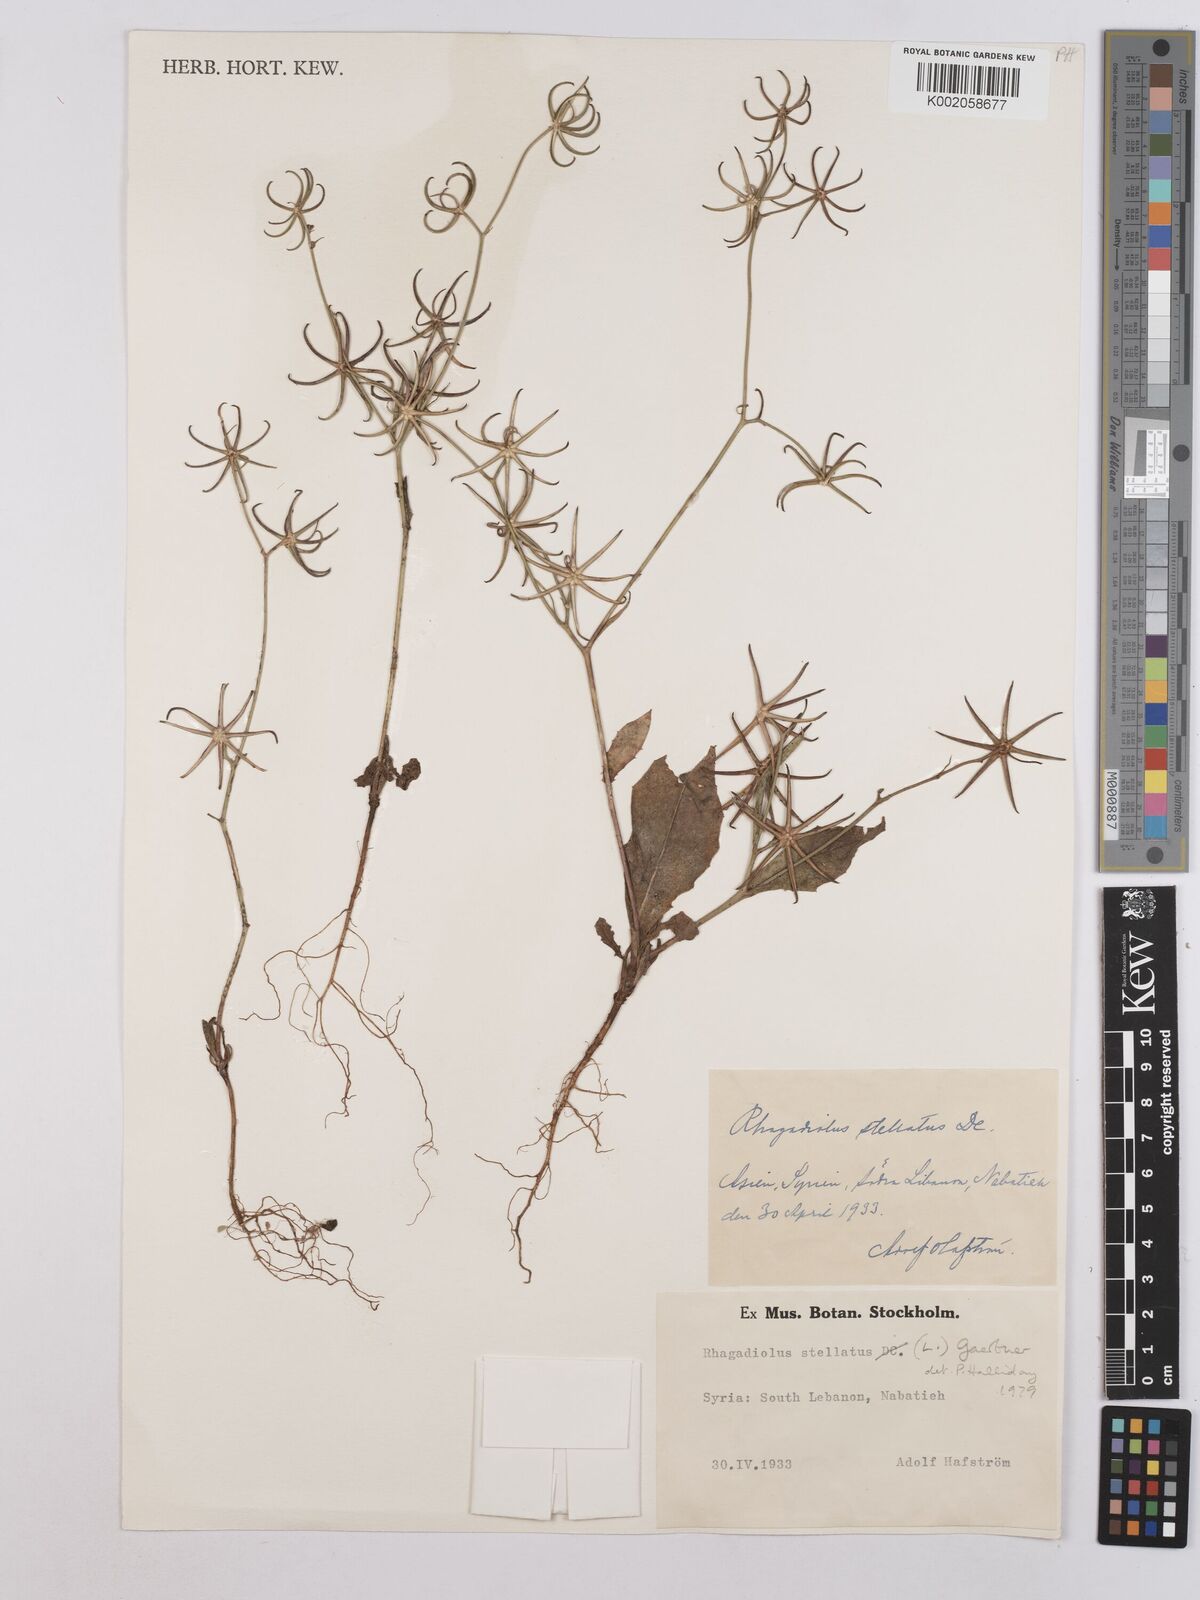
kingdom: Plantae
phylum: Tracheophyta
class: Magnoliopsida
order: Asterales
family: Asteraceae
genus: Rhagadiolus
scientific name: Rhagadiolus stellatus
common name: Star hawkbit
